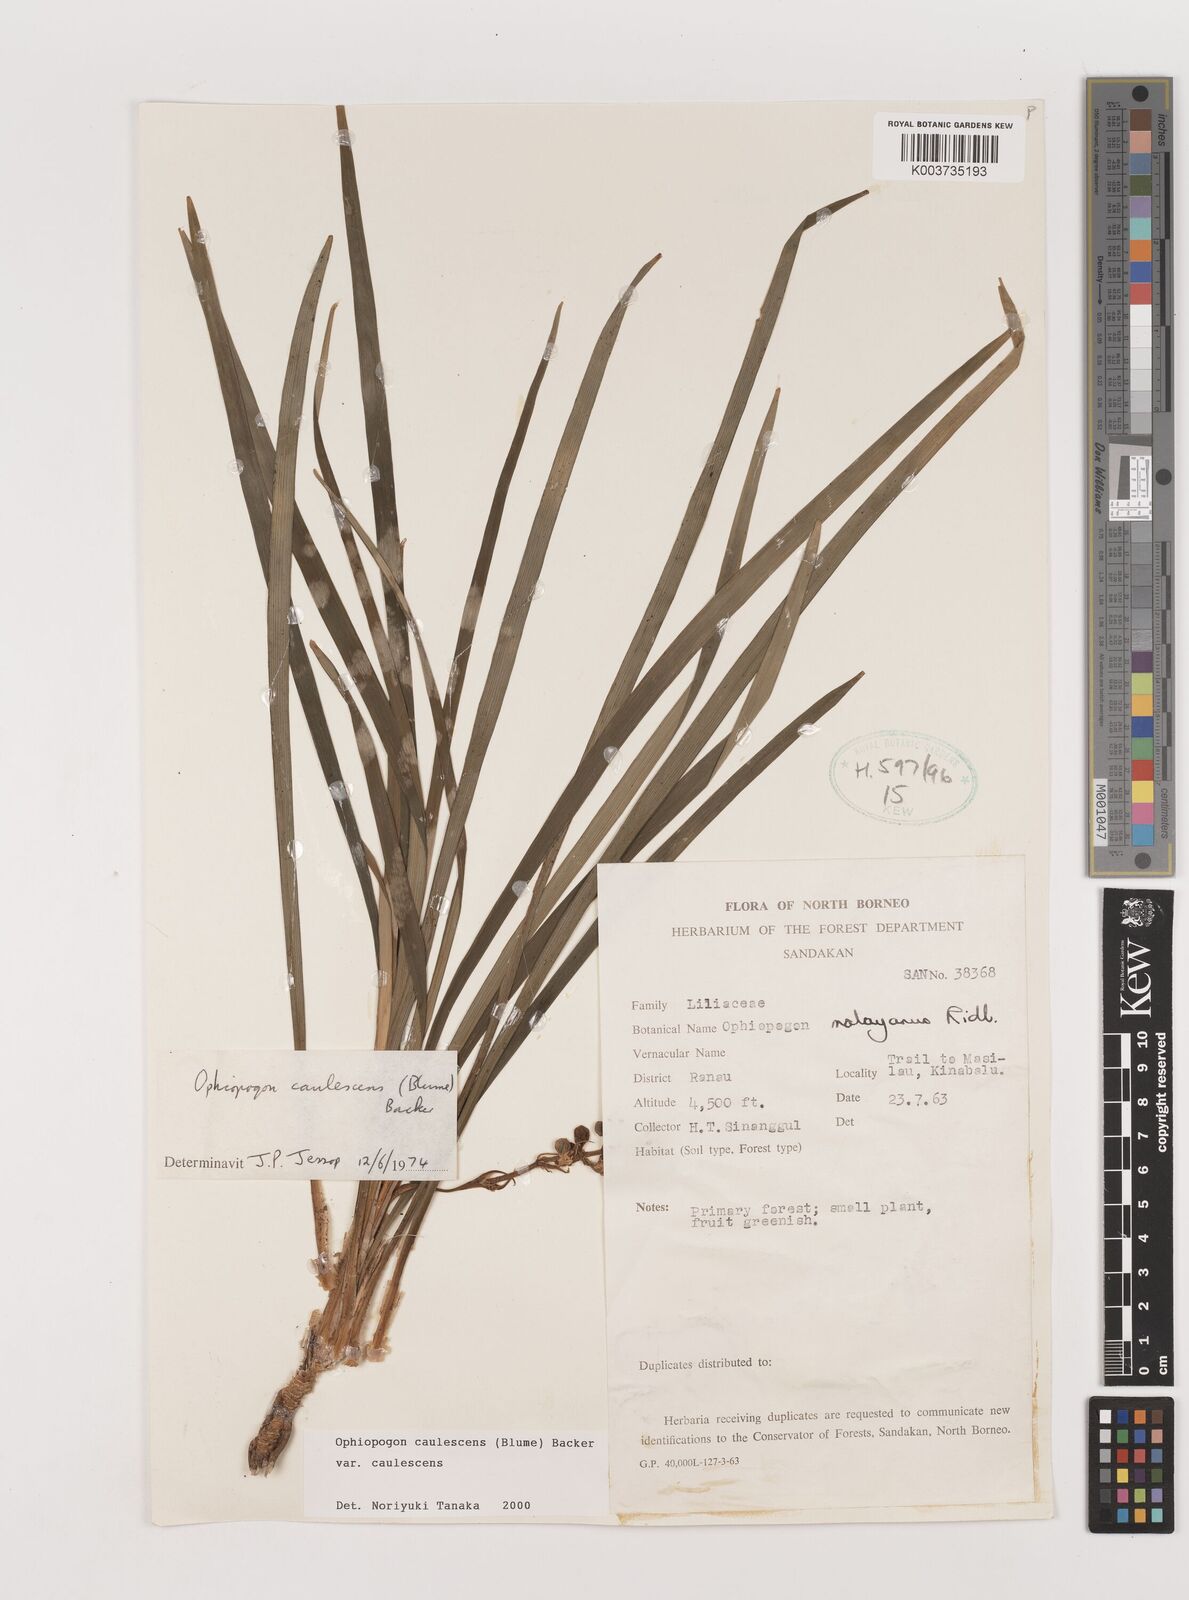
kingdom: Plantae
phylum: Tracheophyta
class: Liliopsida
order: Asparagales
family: Asparagaceae
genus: Ophiopogon
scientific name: Ophiopogon caulescens
